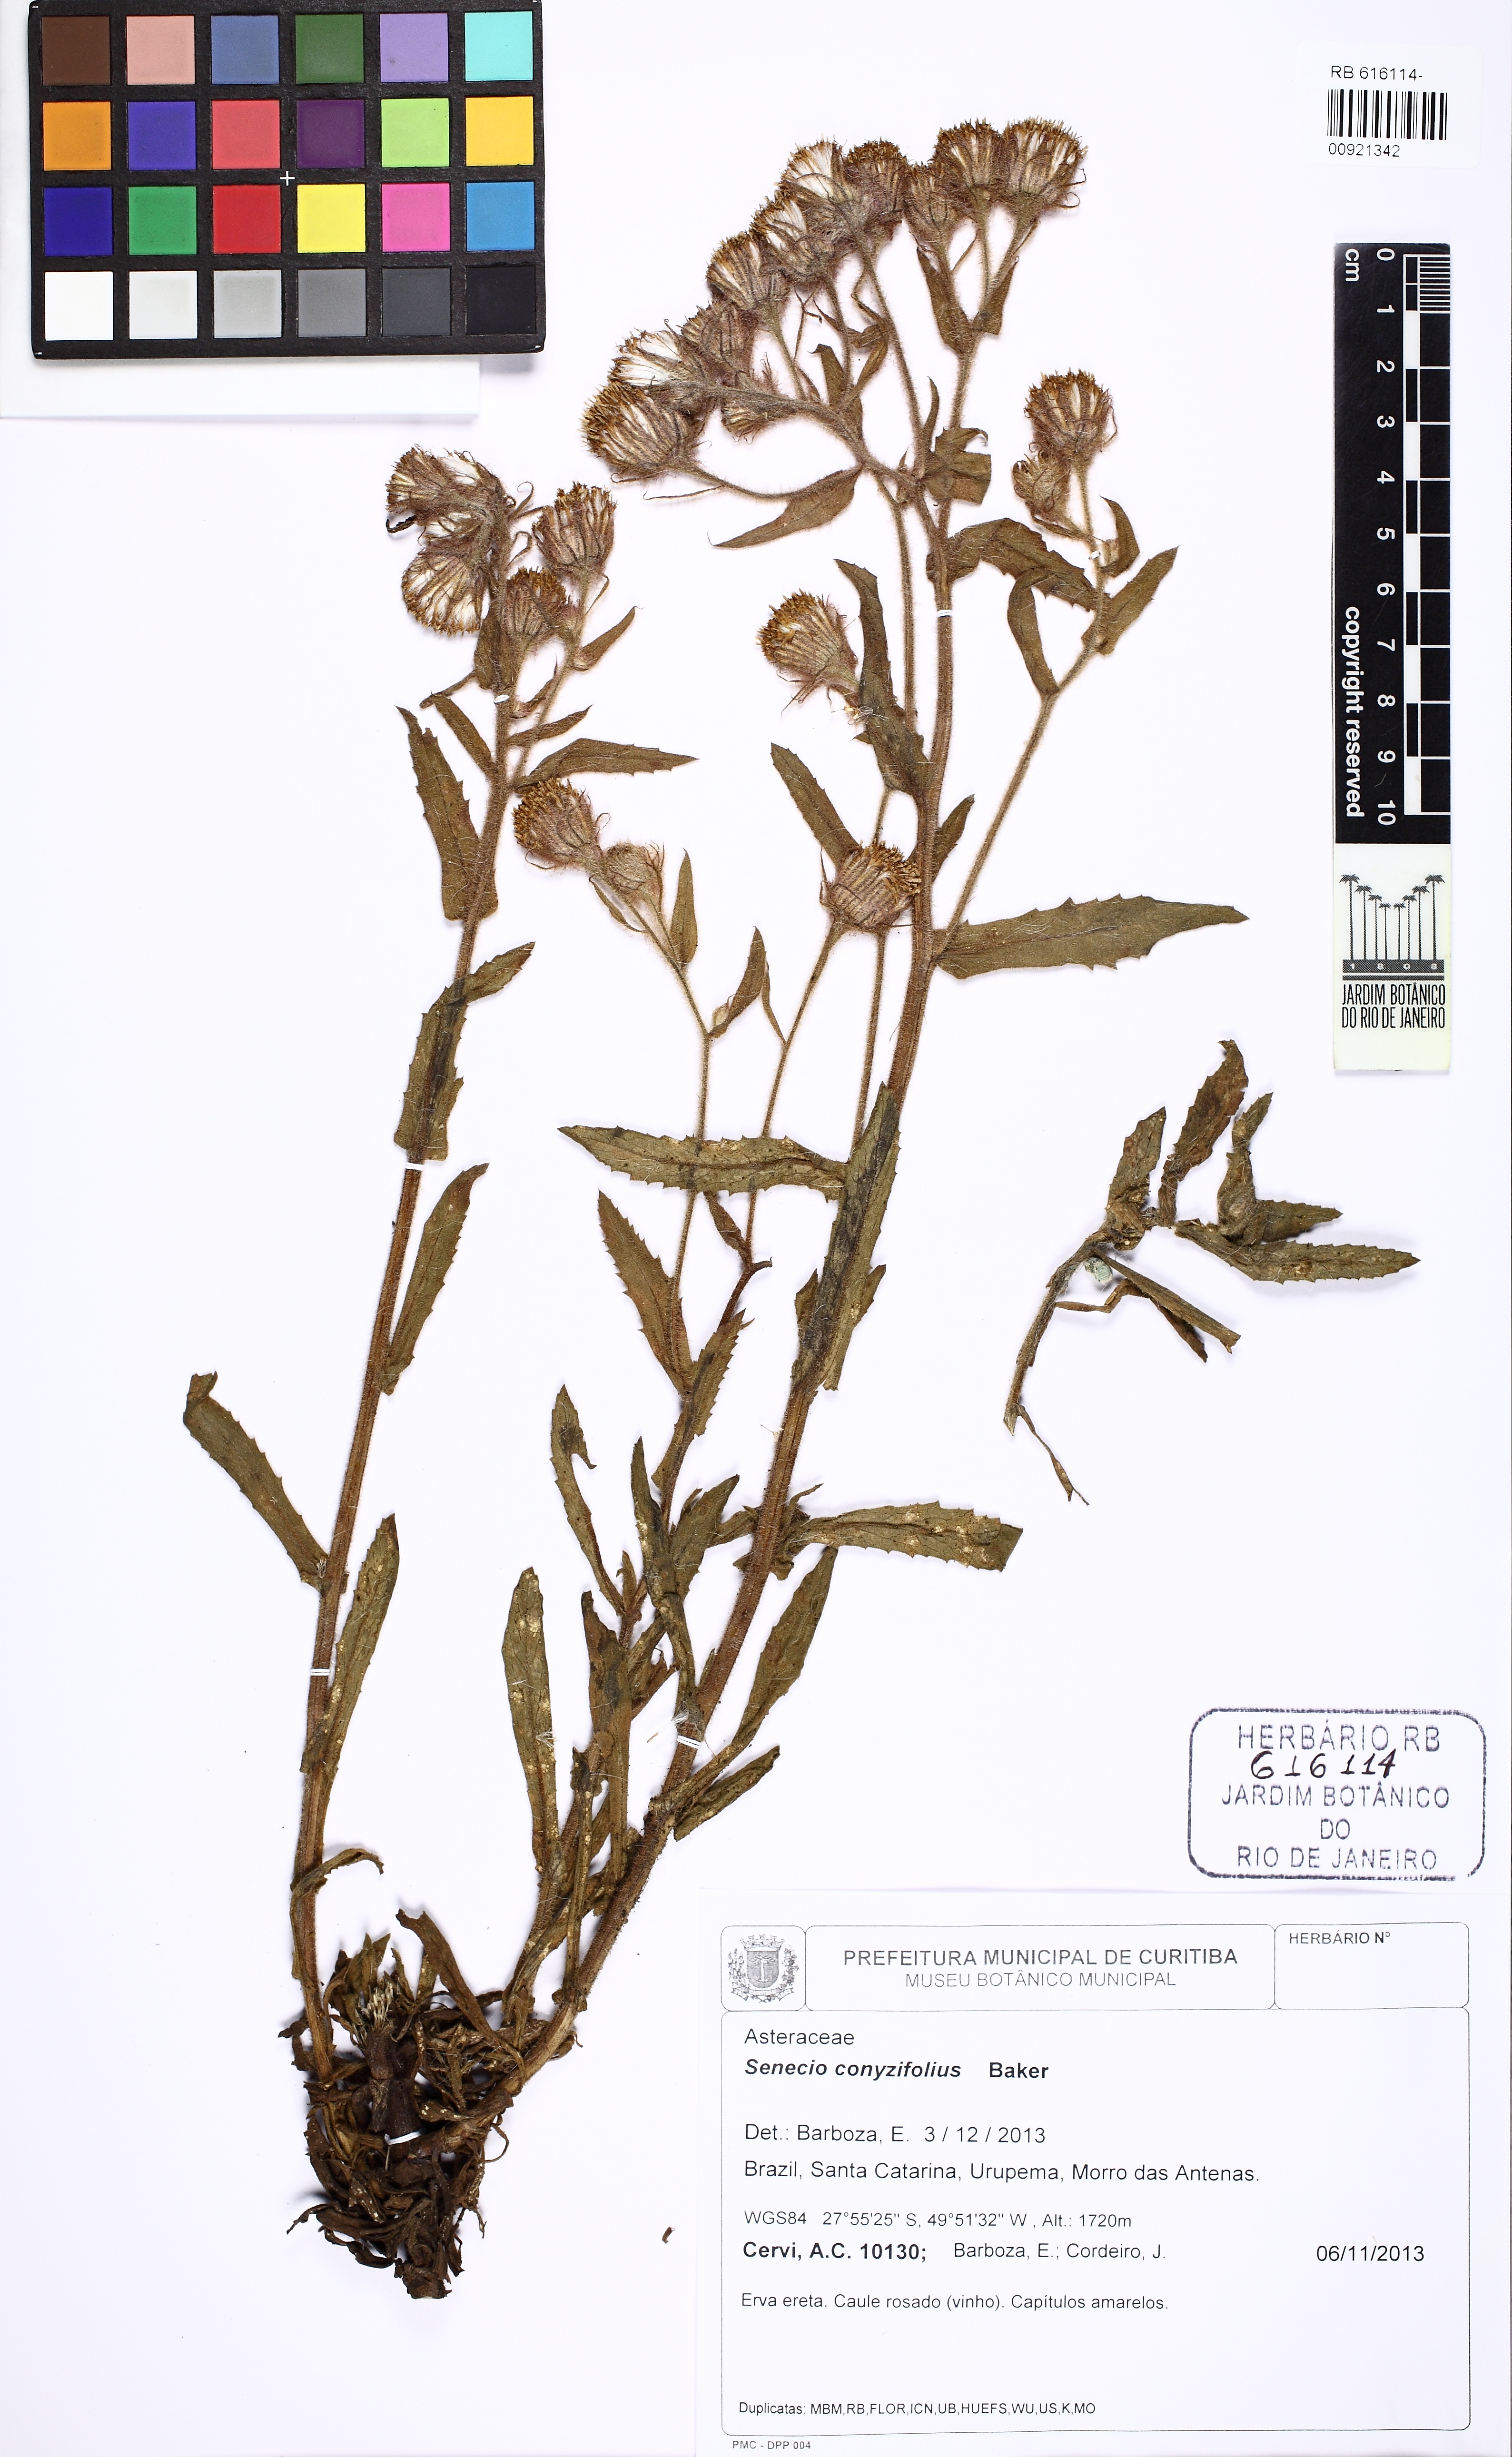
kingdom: Plantae
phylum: Tracheophyta
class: Magnoliopsida
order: Asterales
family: Asteraceae
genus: Senecio
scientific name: Senecio conyzifolius
